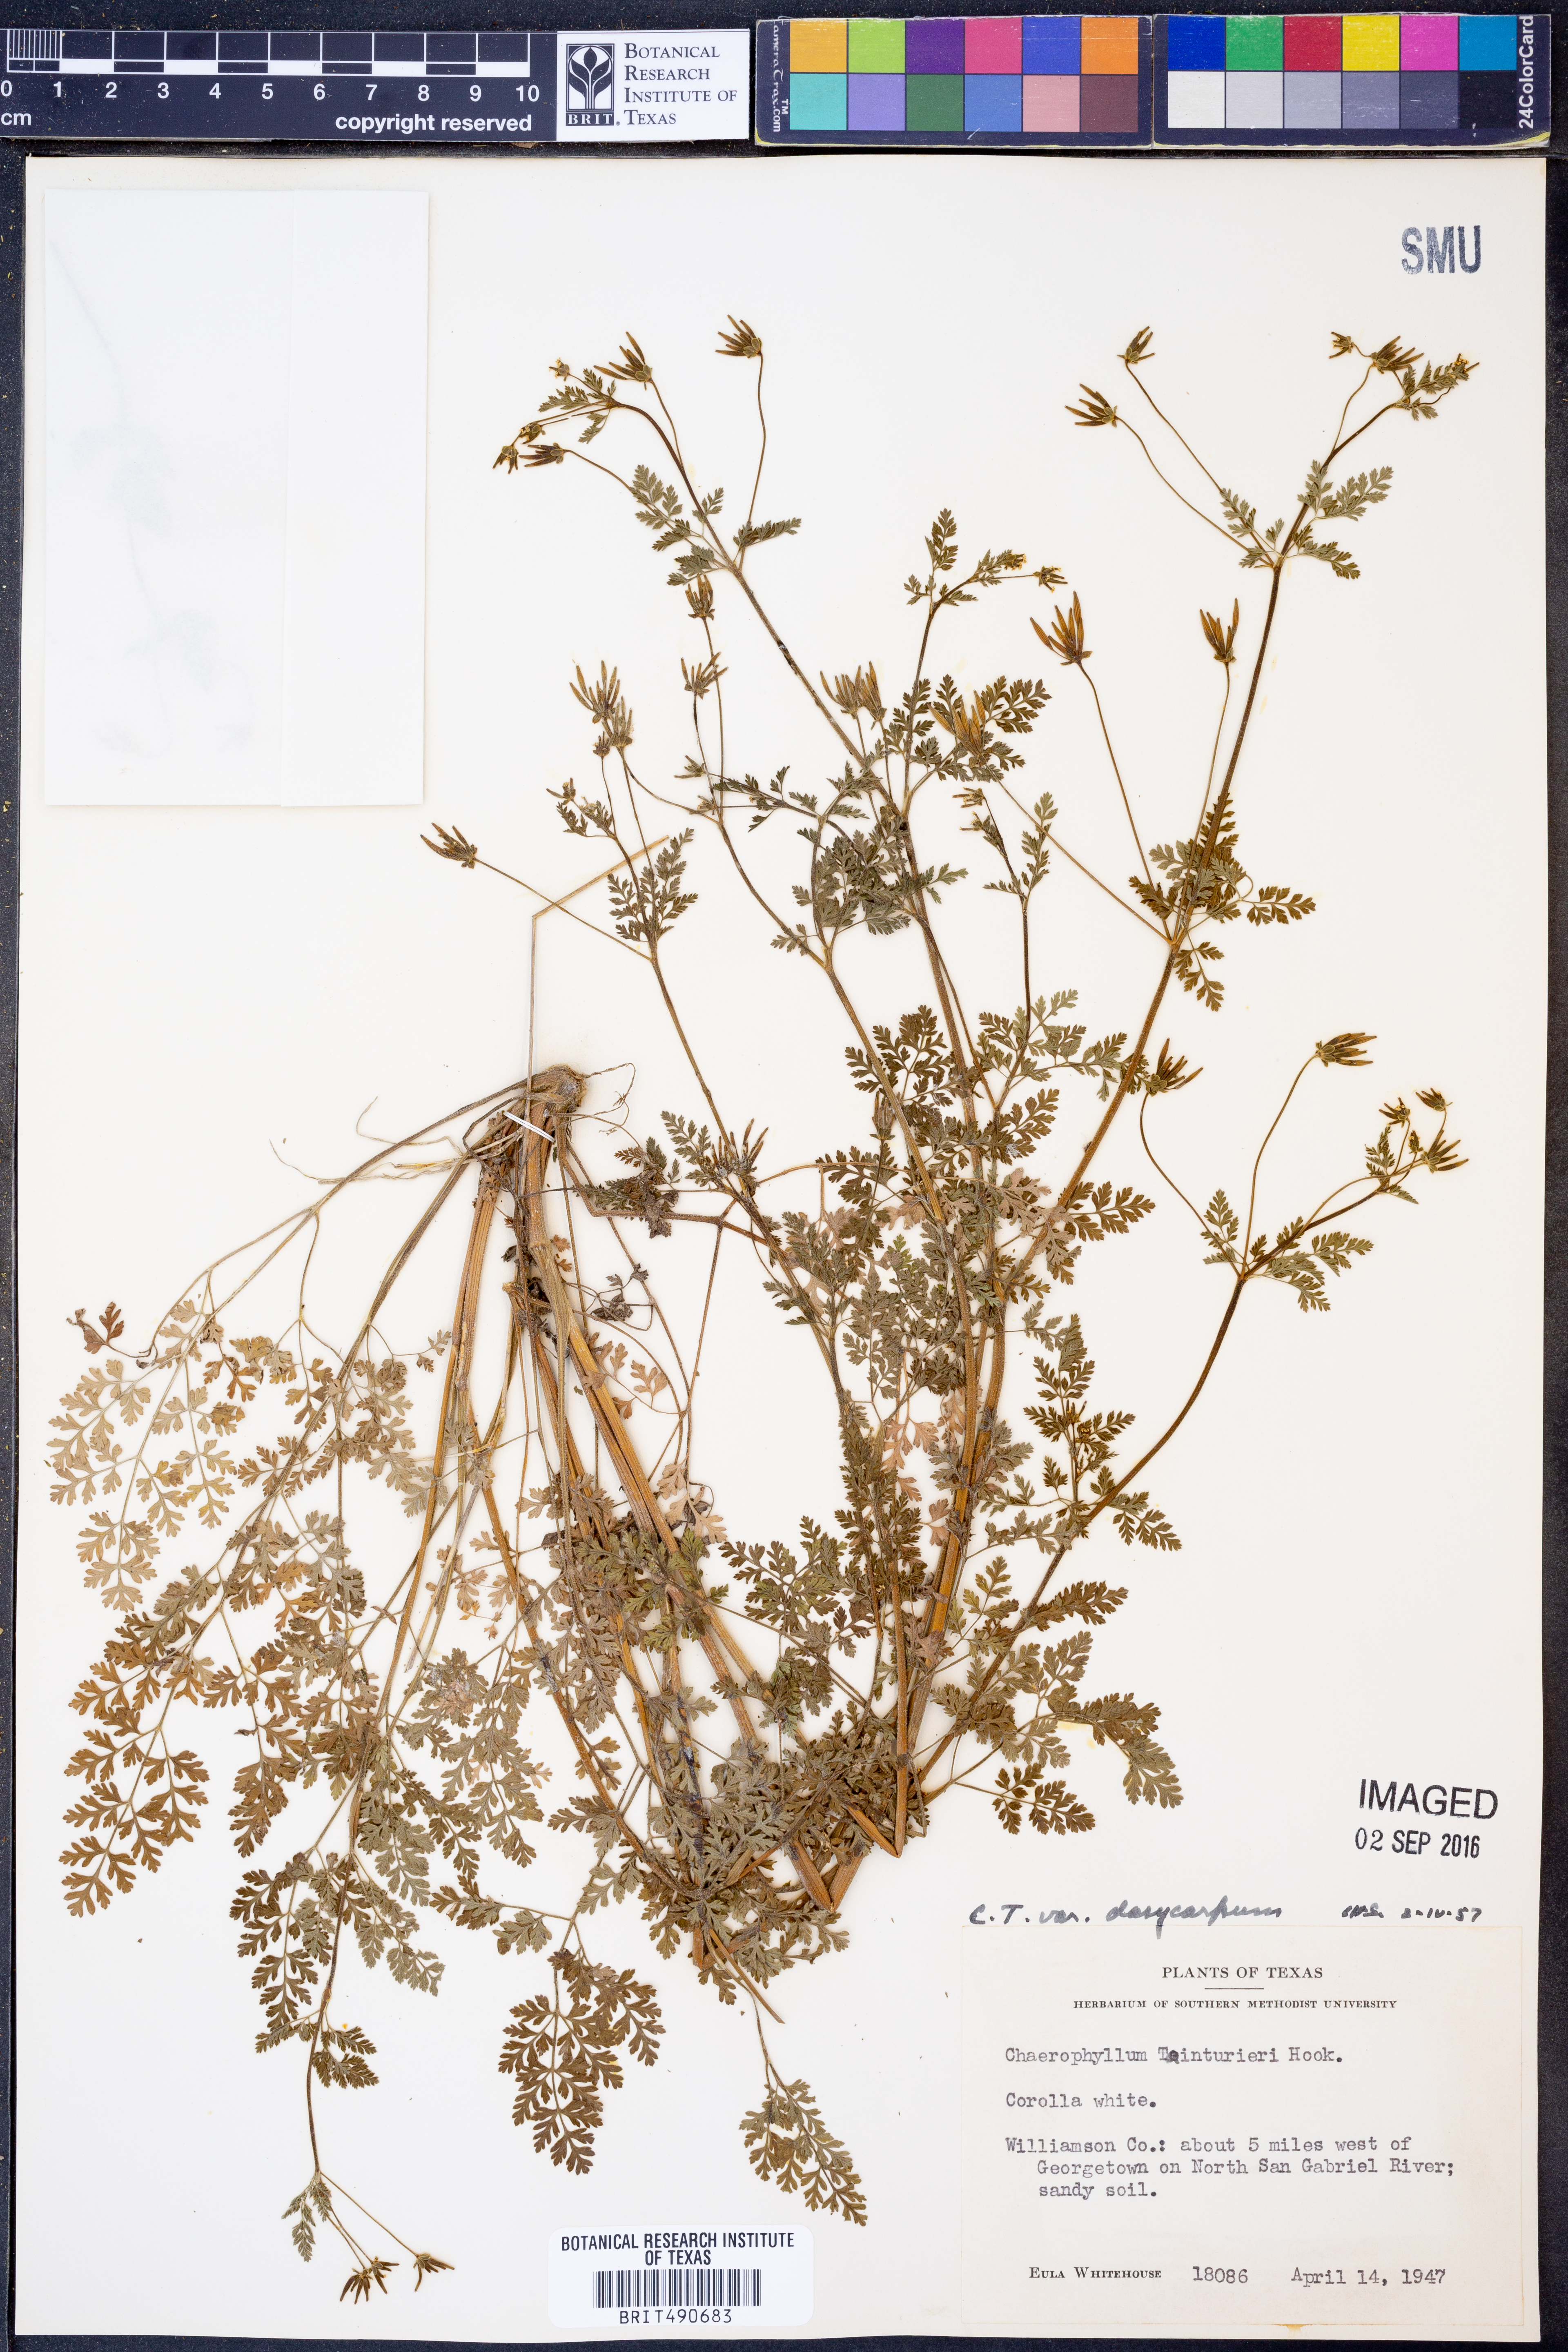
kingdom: Plantae
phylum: Tracheophyta
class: Magnoliopsida
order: Apiales
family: Apiaceae
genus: Chaerophyllum
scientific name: Chaerophyllum dasycarpum
